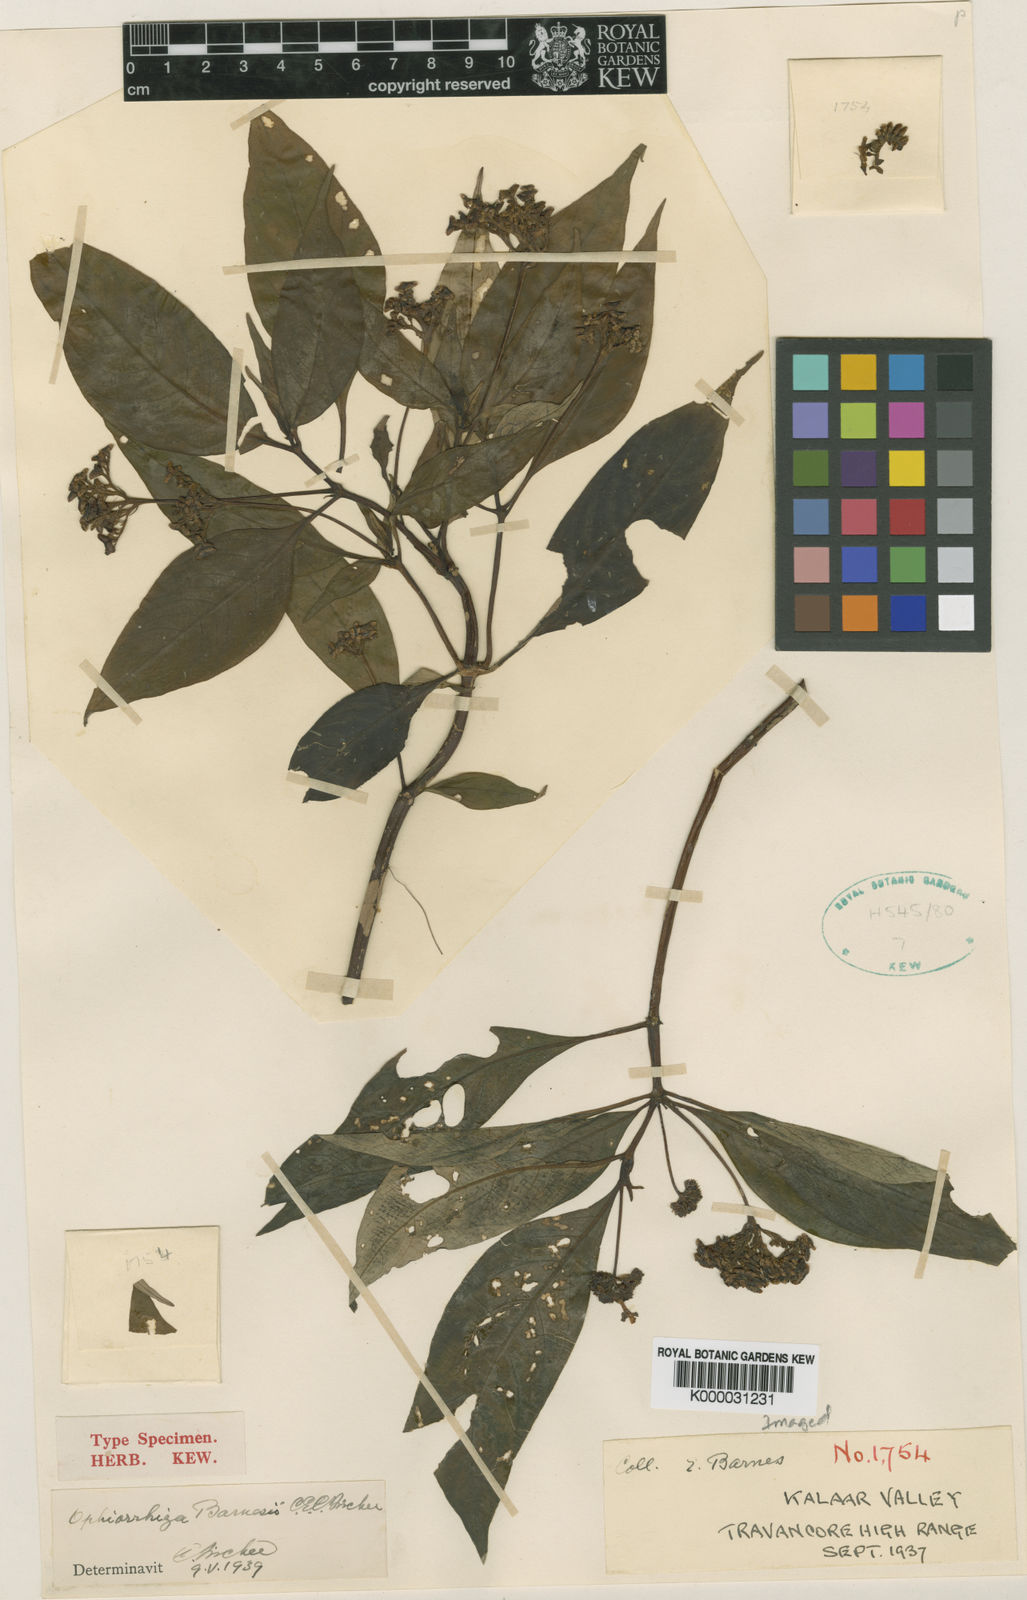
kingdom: Plantae
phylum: Tracheophyta
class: Magnoliopsida
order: Gentianales
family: Rubiaceae
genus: Ophiorrhiza
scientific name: Ophiorrhiza barnesii
